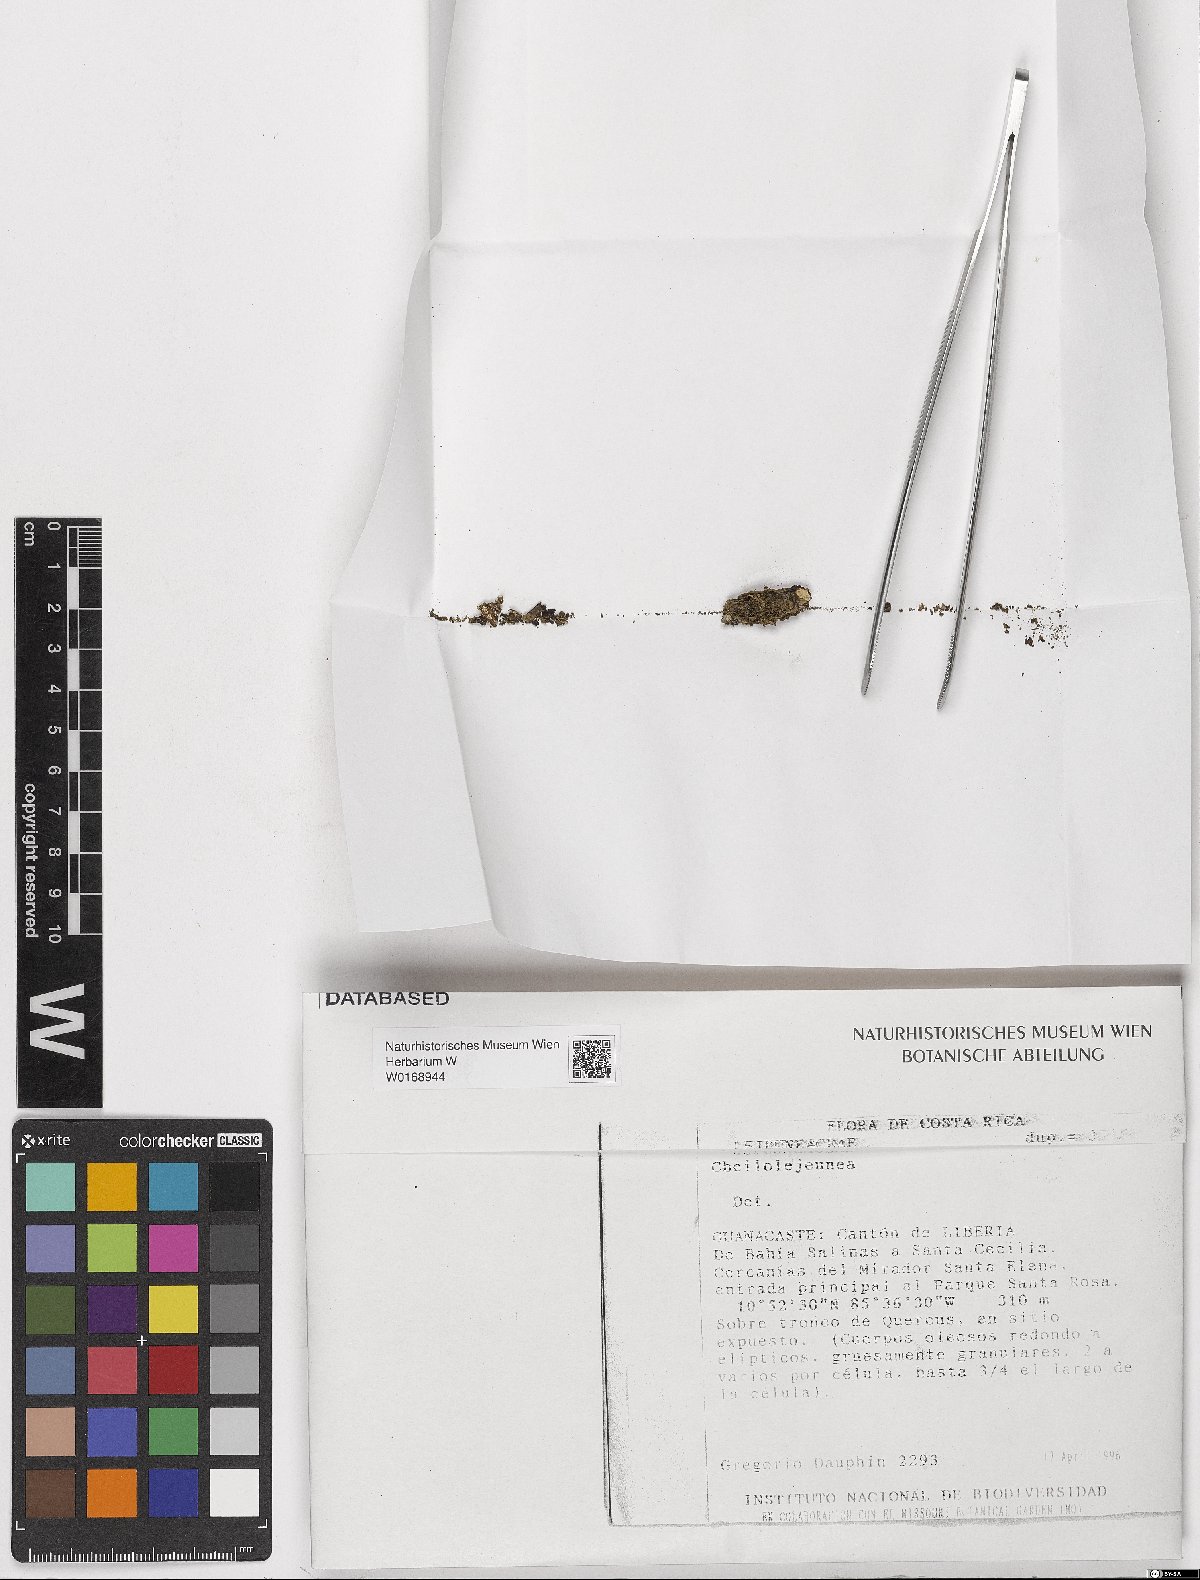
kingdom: Plantae
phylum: Marchantiophyta
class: Jungermanniopsida
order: Porellales
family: Lejeuneaceae
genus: Cheilolejeunea
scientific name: Cheilolejeunea
